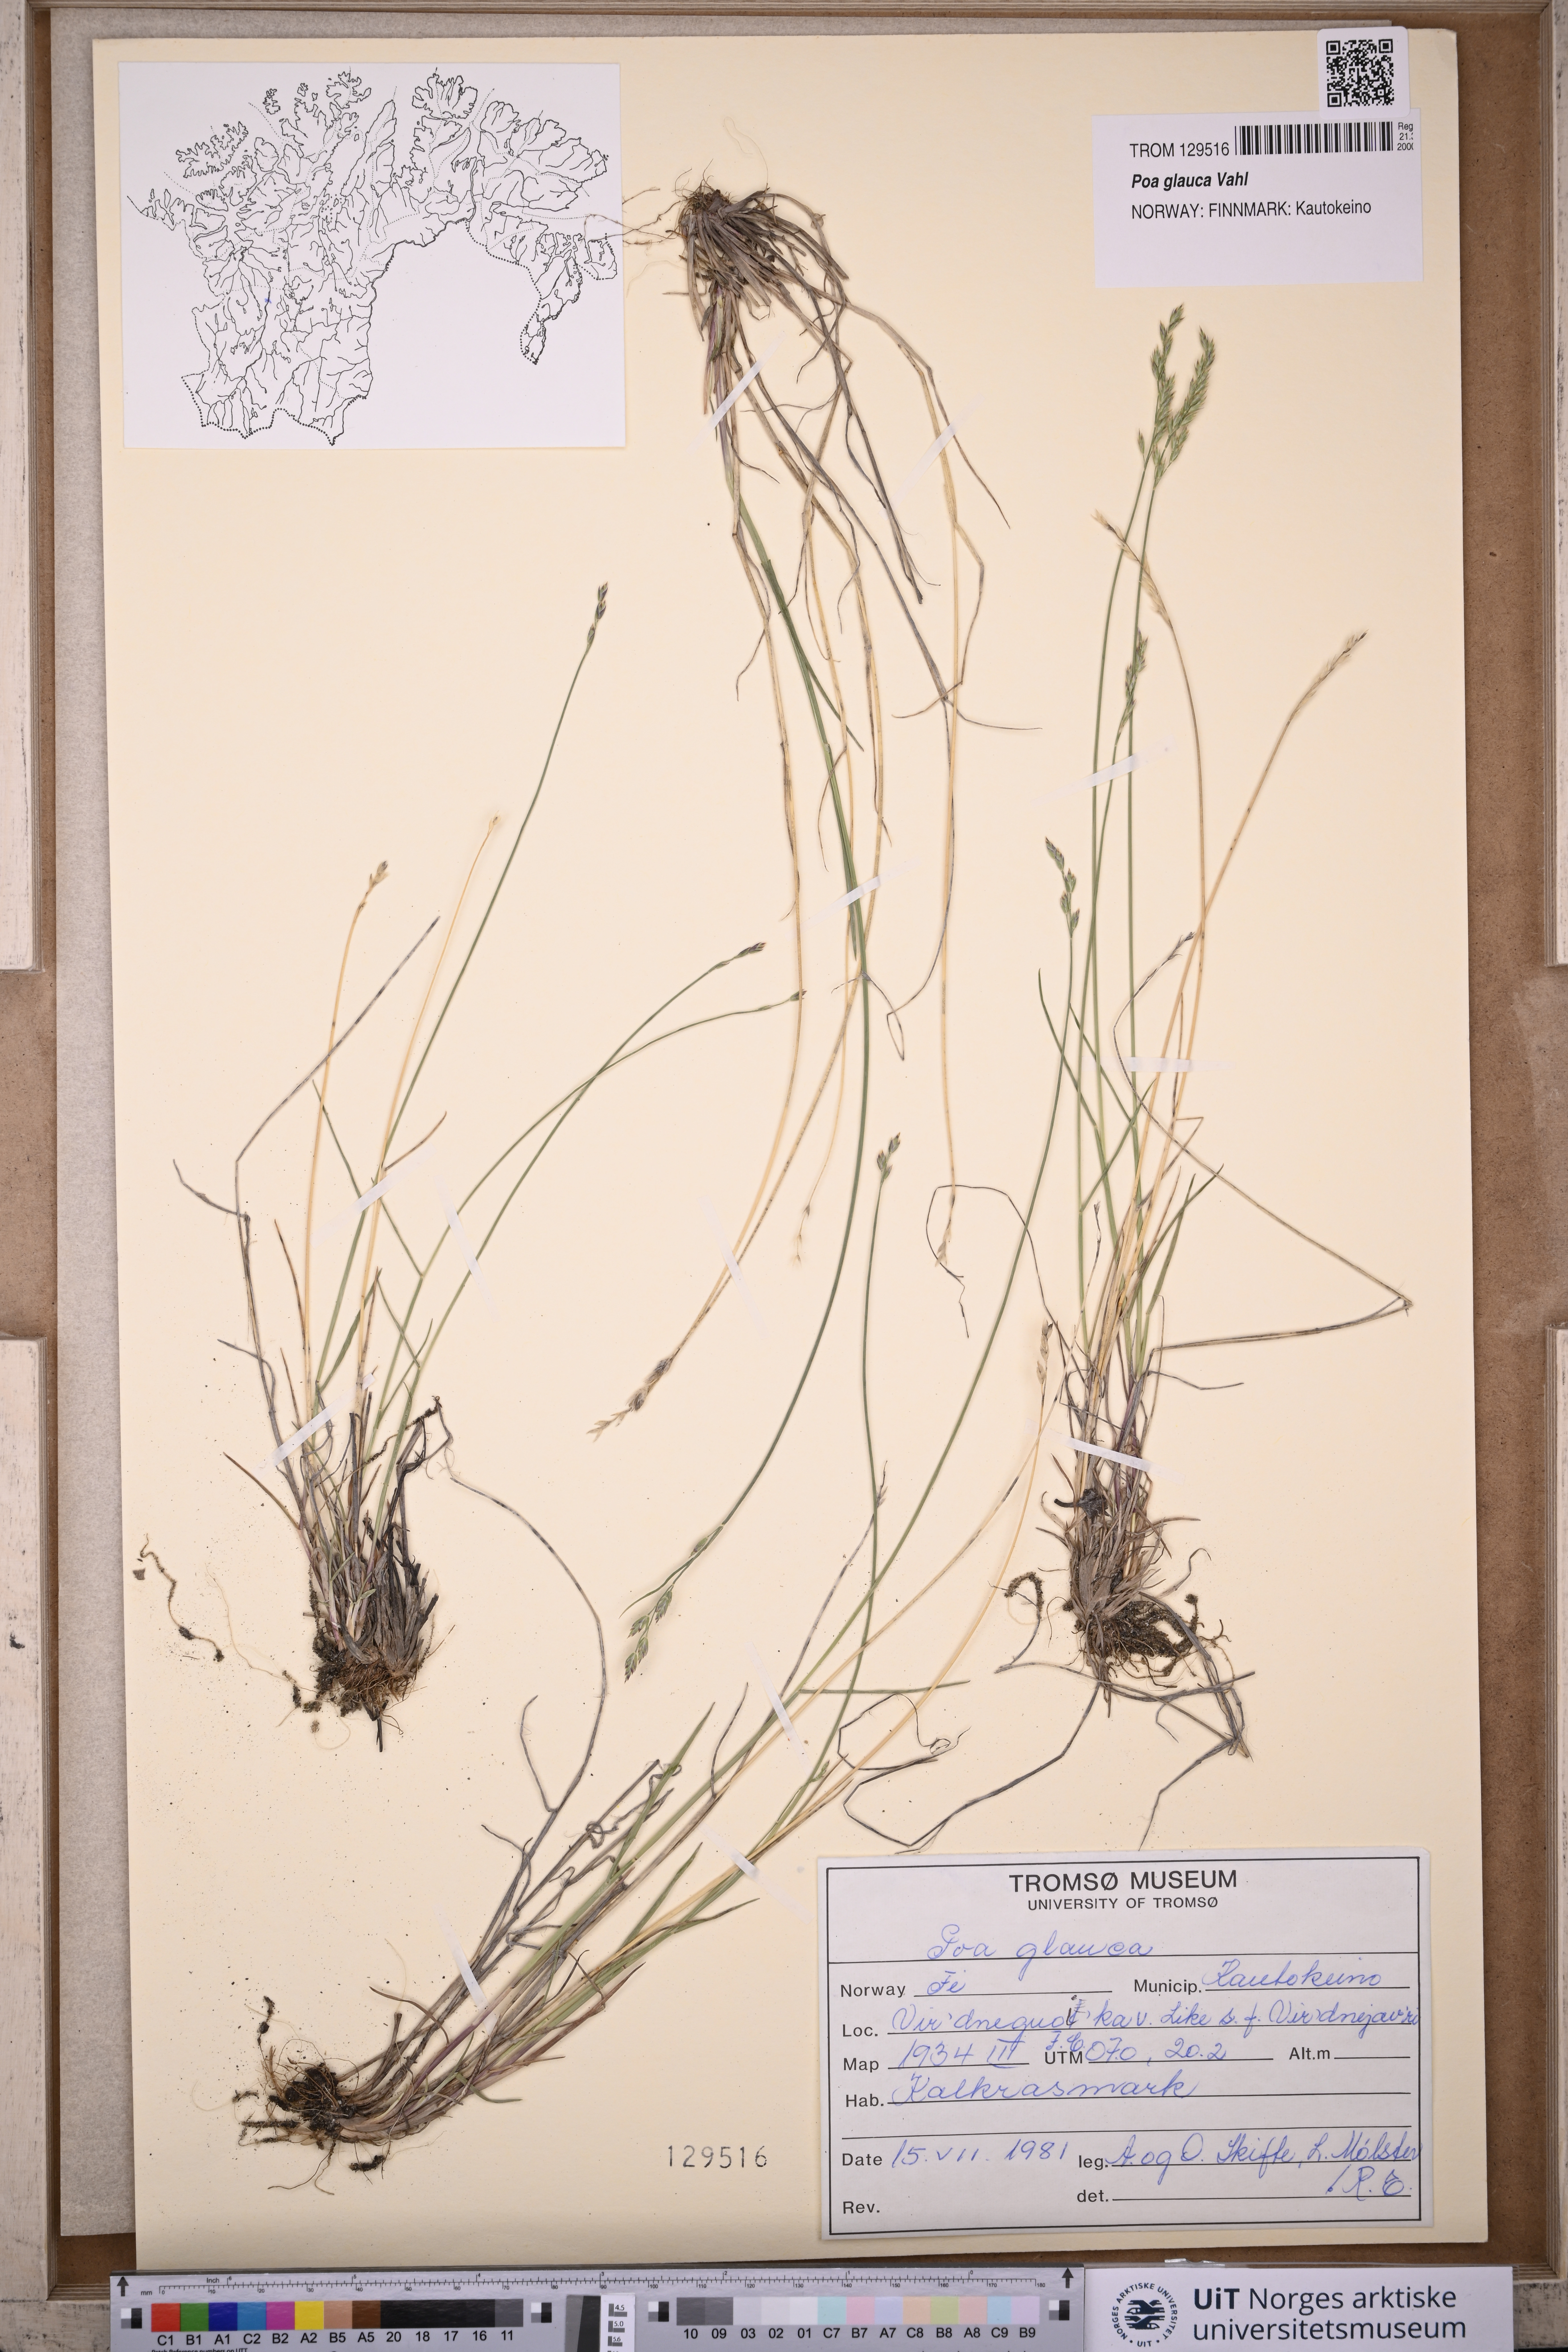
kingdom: Plantae
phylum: Tracheophyta
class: Liliopsida
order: Poales
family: Poaceae
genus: Poa
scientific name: Poa glauca
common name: Glaucous bluegrass
